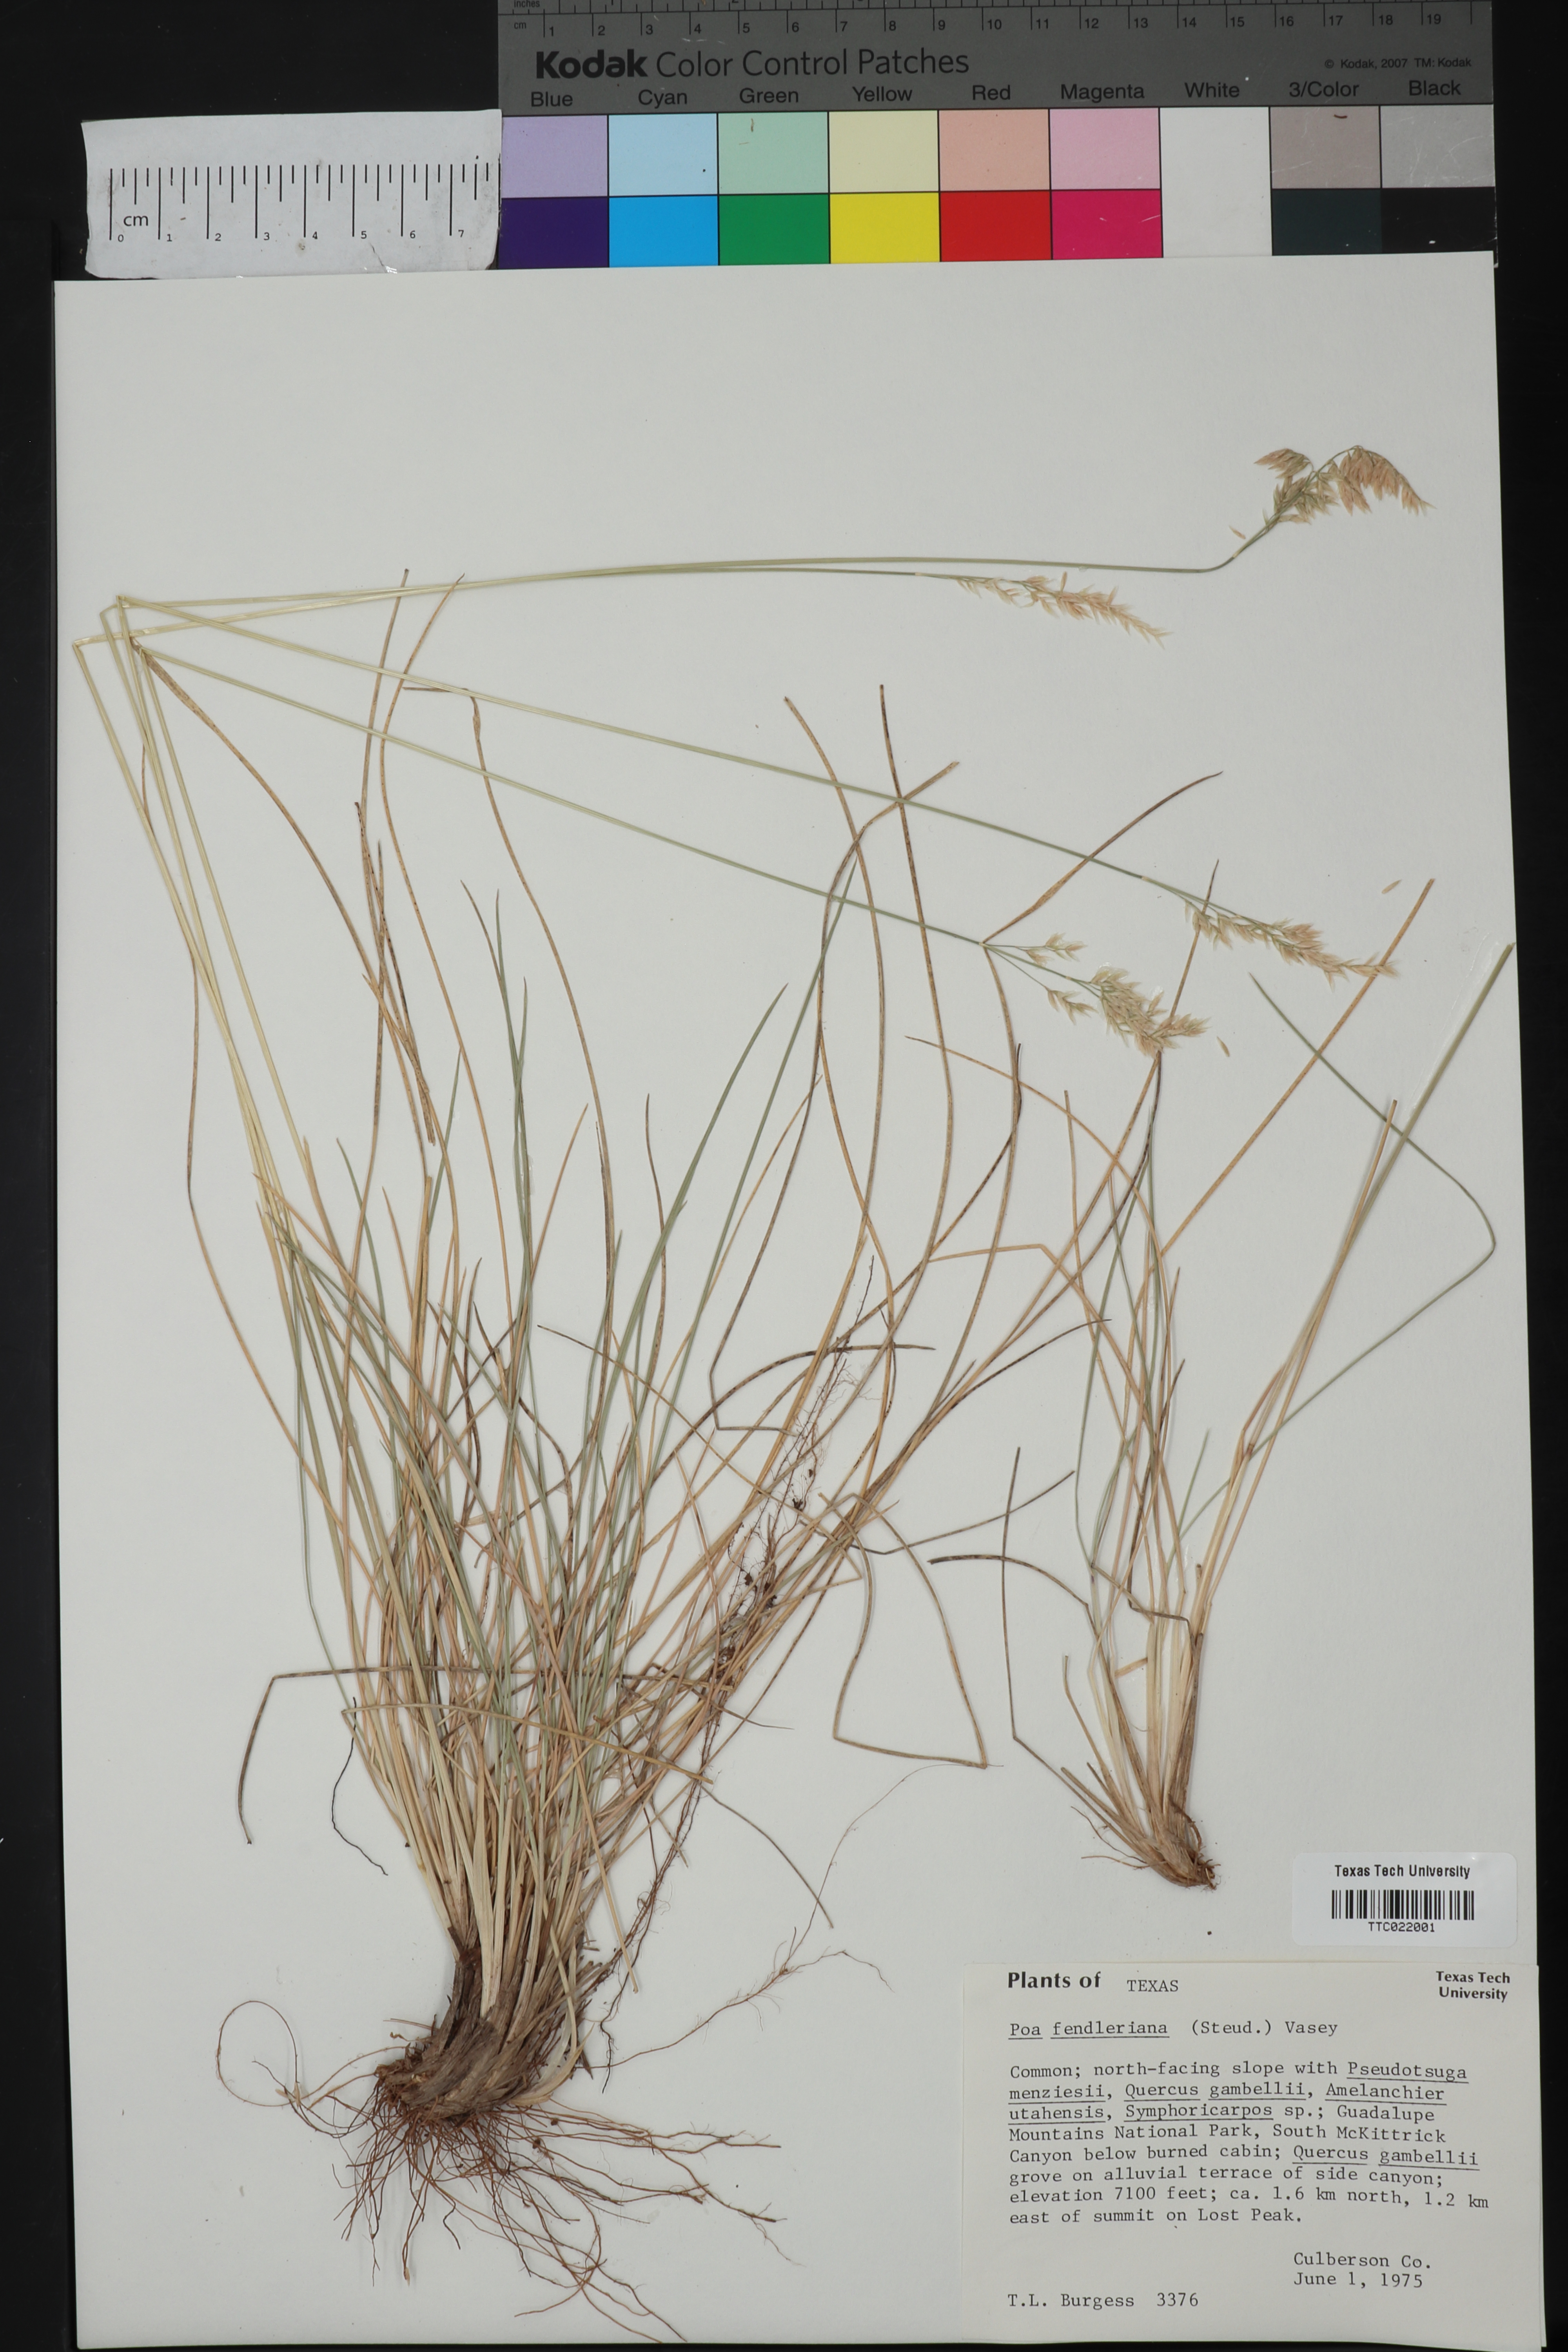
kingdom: Plantae
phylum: Tracheophyta
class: Liliopsida
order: Poales
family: Poaceae
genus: Poa
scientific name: Poa fendleriana
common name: Mutton bluegrass
